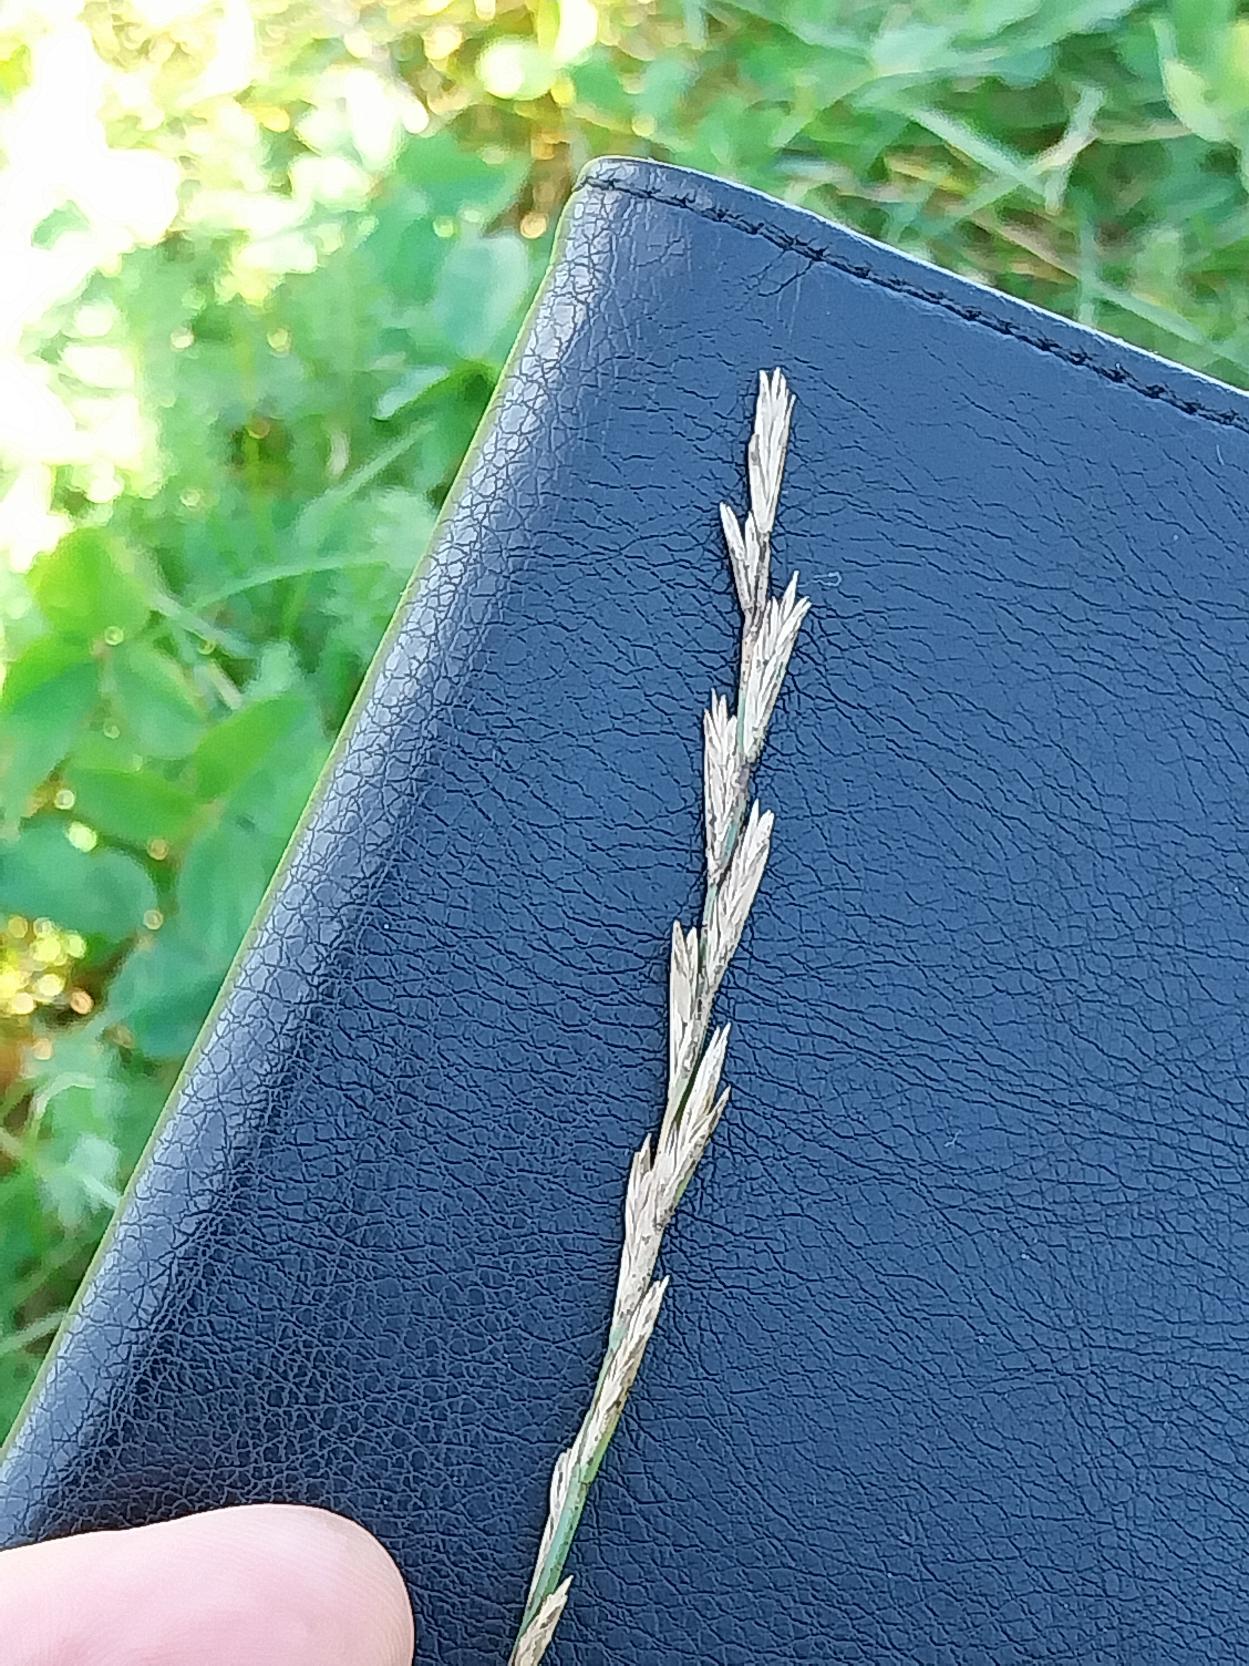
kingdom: Plantae
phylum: Tracheophyta
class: Liliopsida
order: Poales
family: Poaceae
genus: Lolium
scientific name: Lolium perenne
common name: Almindelig rajgræs
